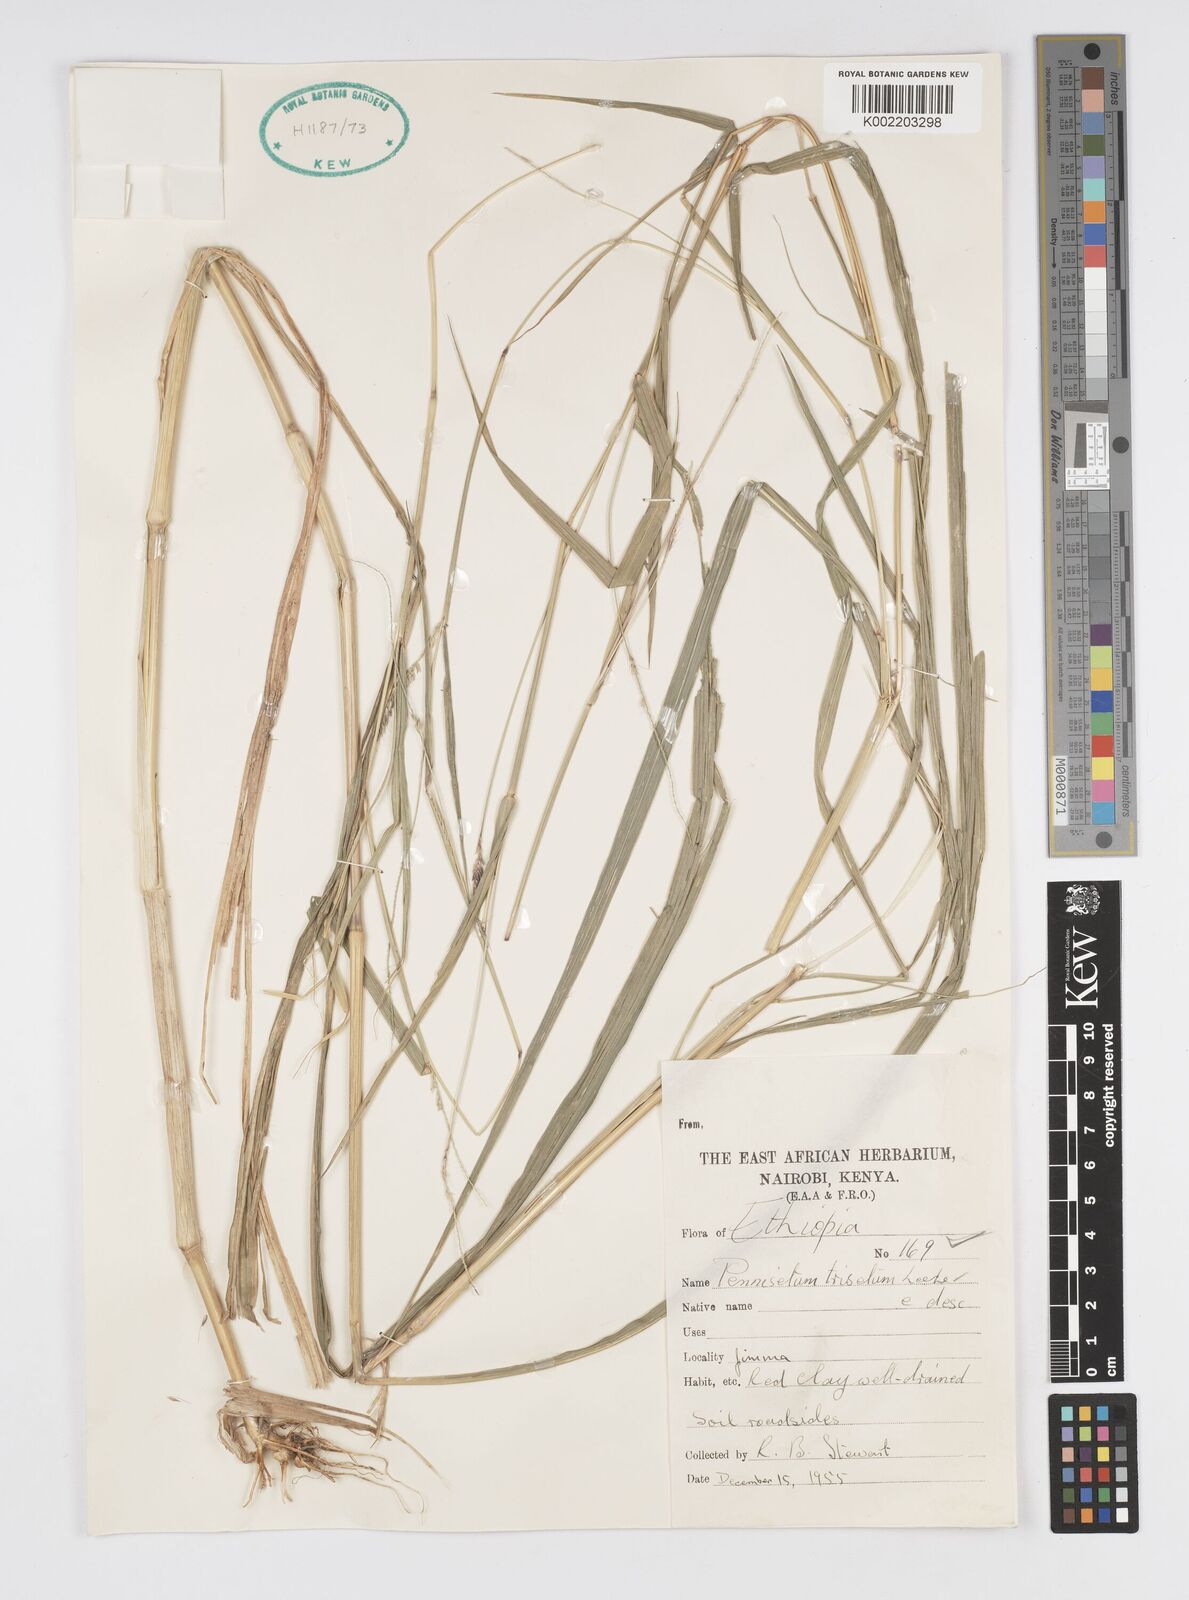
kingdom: Plantae
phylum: Tracheophyta
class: Liliopsida
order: Poales
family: Poaceae
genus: Cenchrus
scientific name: Cenchrus trisetus
